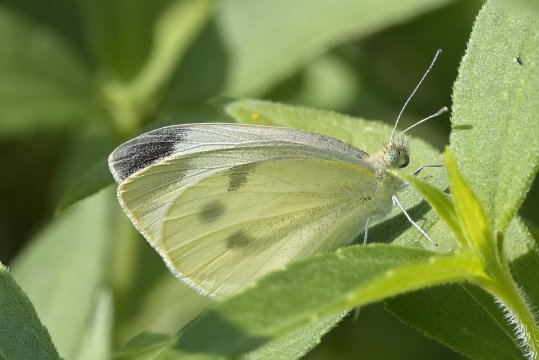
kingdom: Animalia
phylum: Arthropoda
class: Insecta
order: Lepidoptera
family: Pieridae
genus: Pieris
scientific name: Pieris rapae
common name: Cabbage White
